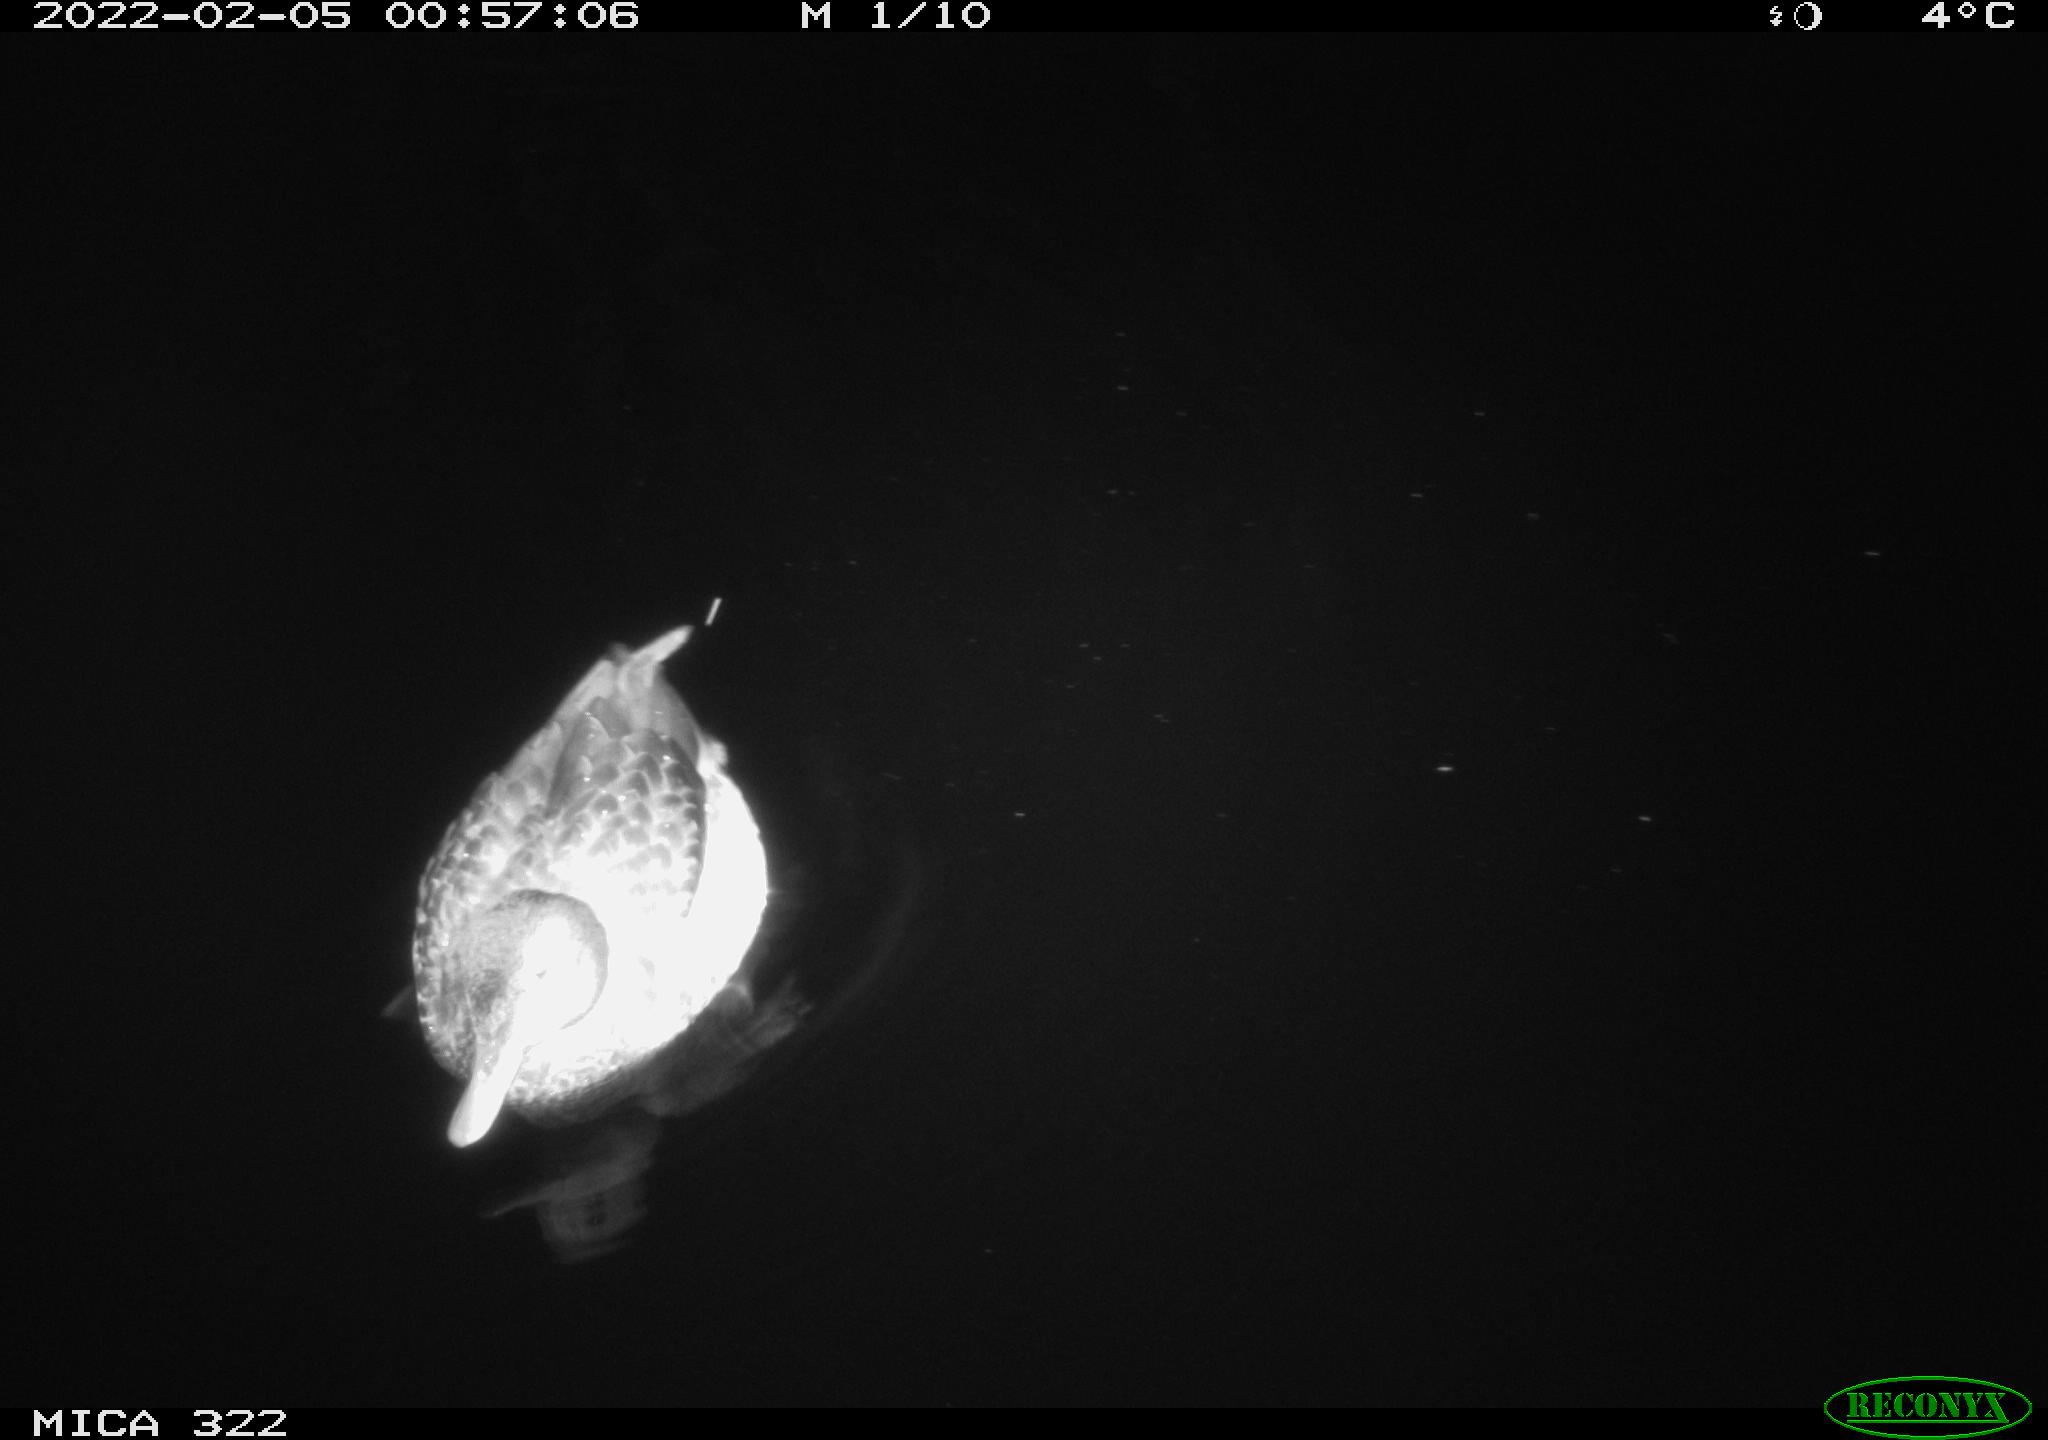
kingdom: Animalia
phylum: Chordata
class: Aves
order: Anseriformes
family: Anatidae
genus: Anas
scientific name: Anas platyrhynchos
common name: Mallard
